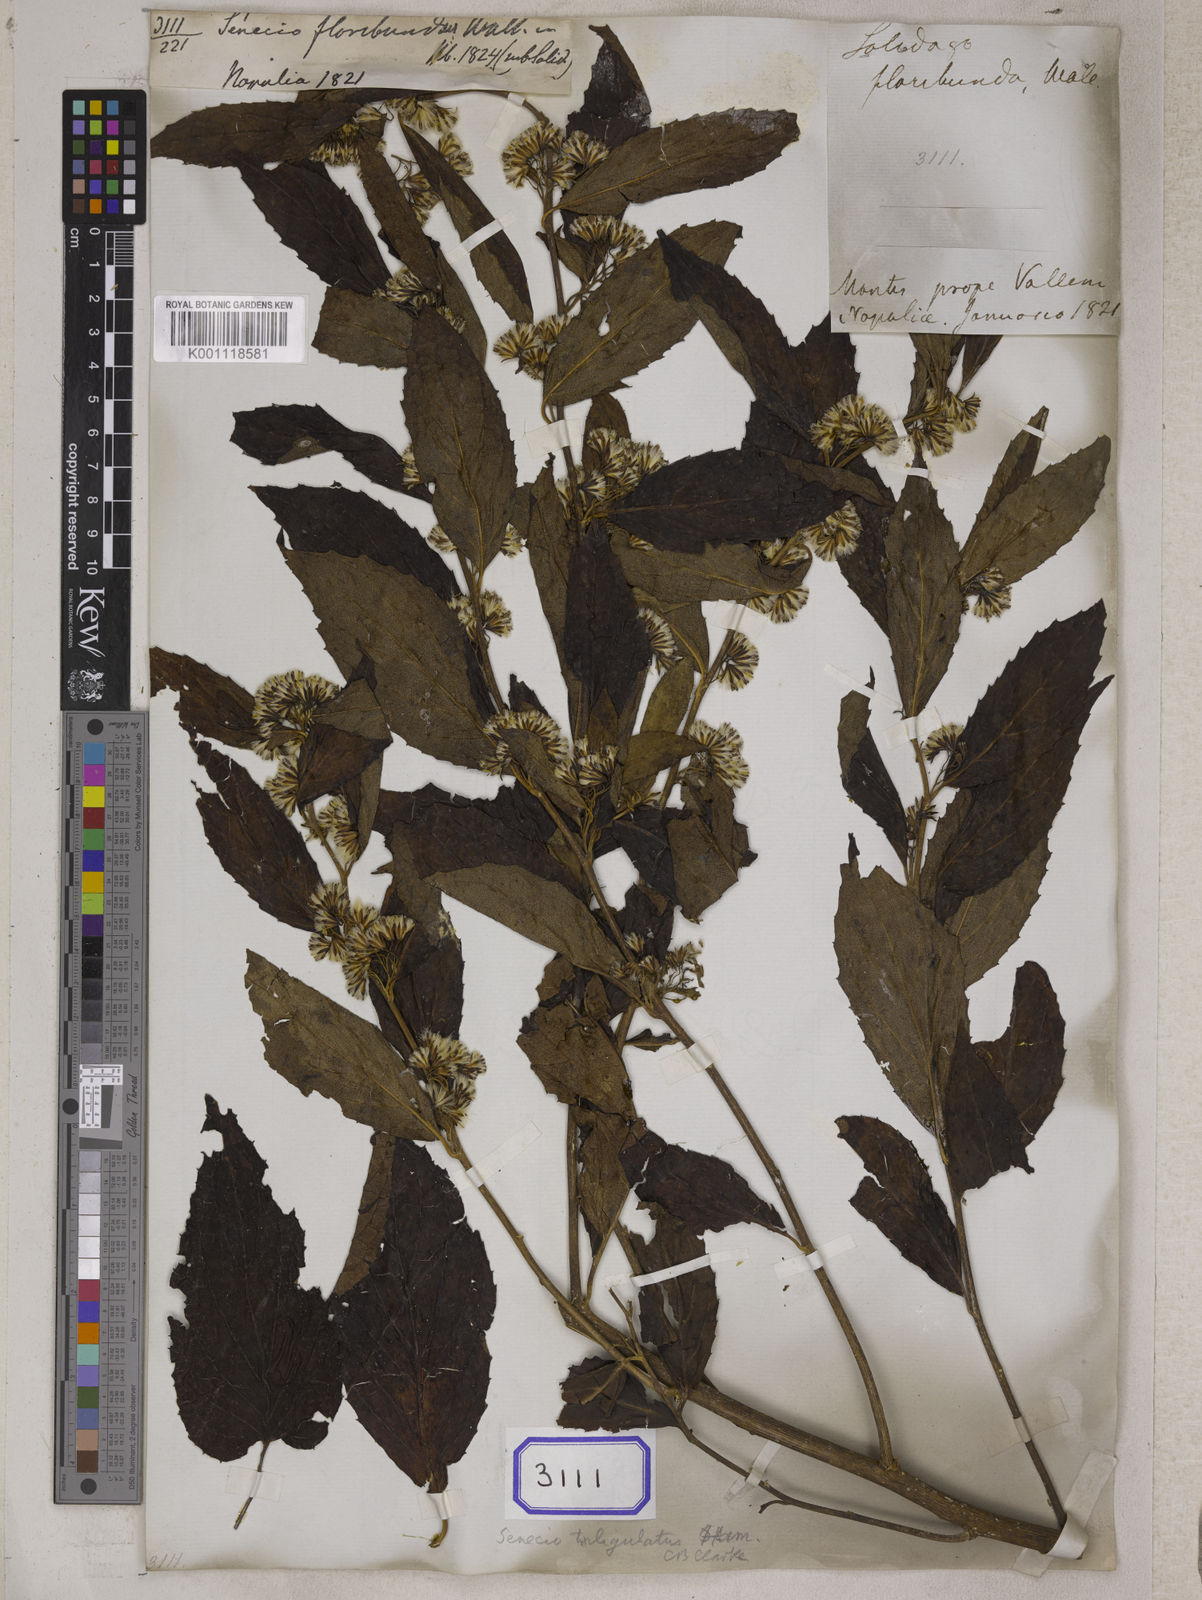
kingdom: Plantae
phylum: Tracheophyta
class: Magnoliopsida
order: Asterales
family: Asteraceae
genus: Synotis
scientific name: Synotis triligulata
